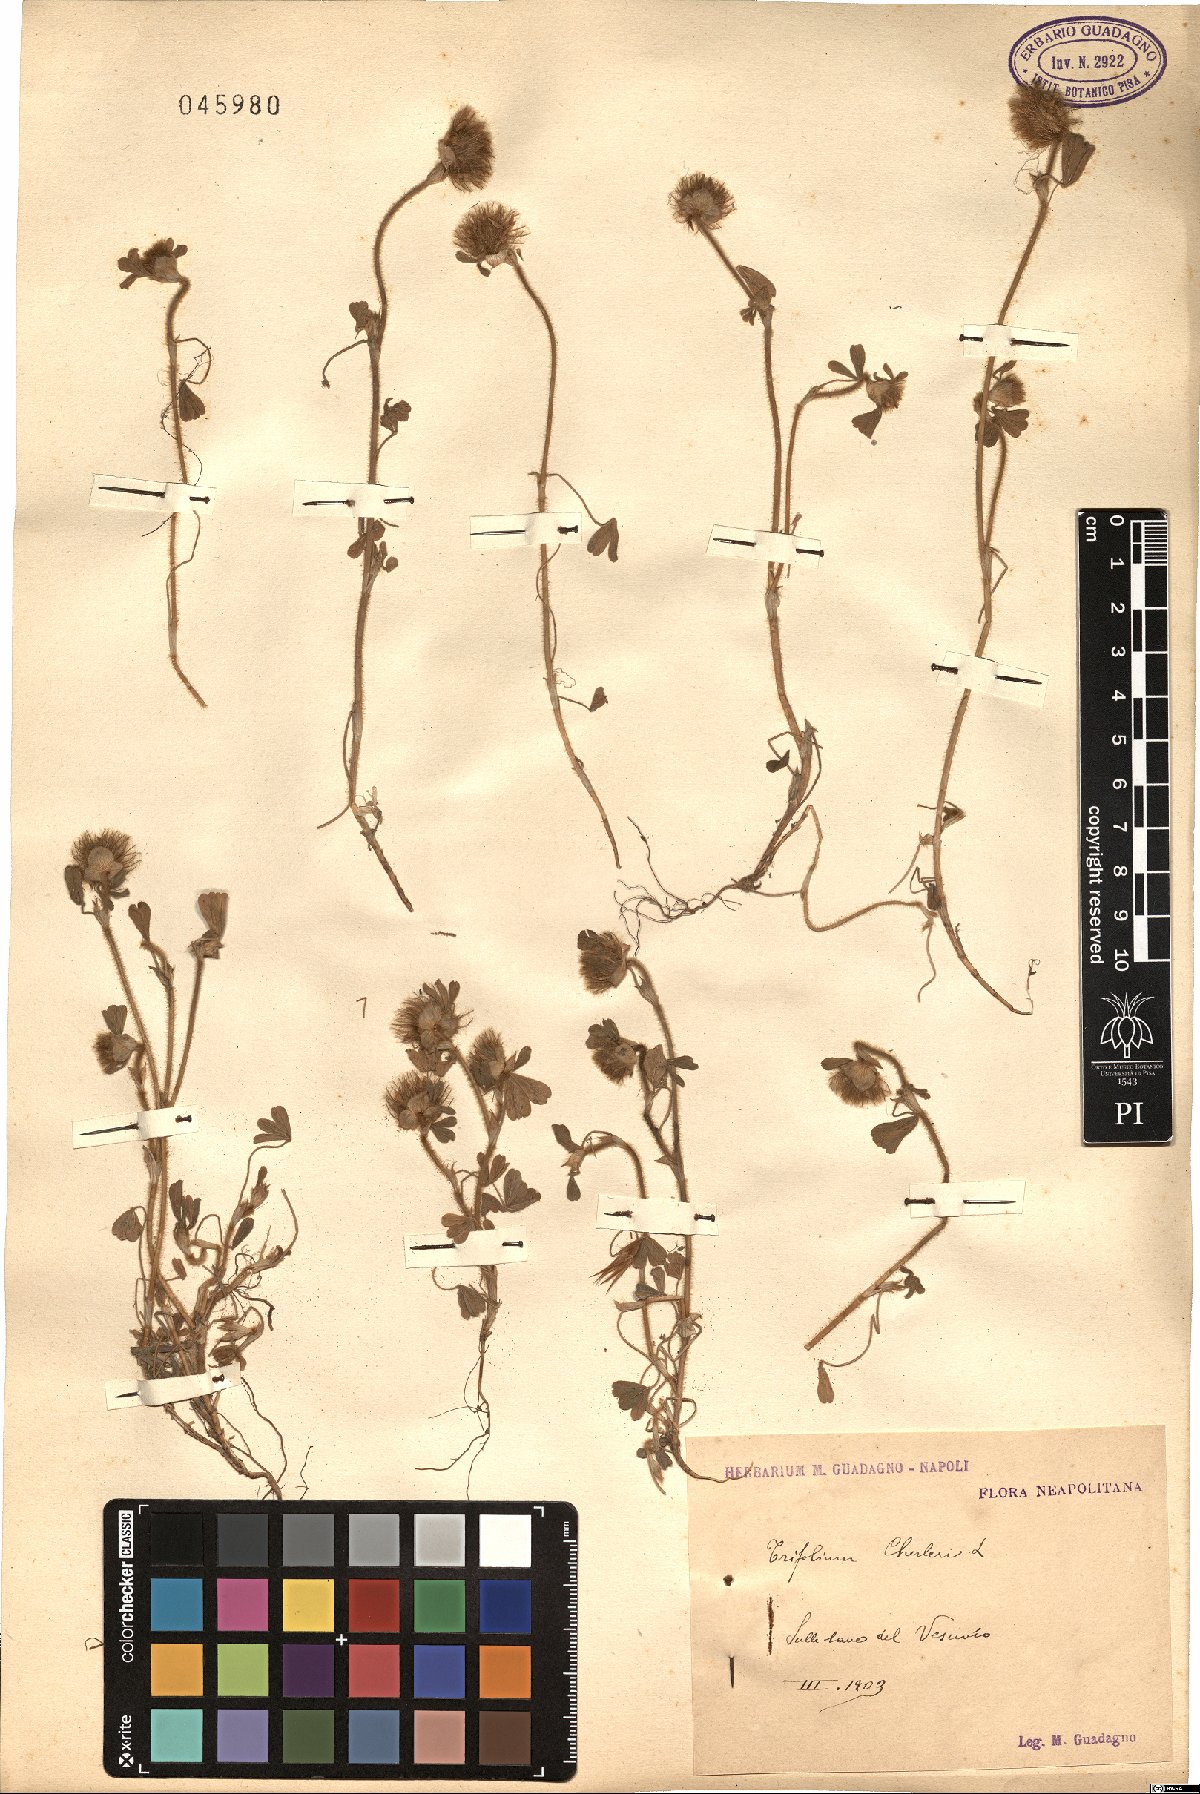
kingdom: Plantae
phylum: Tracheophyta
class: Magnoliopsida
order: Fabales
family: Fabaceae
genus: Trifolium
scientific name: Trifolium cherleri
